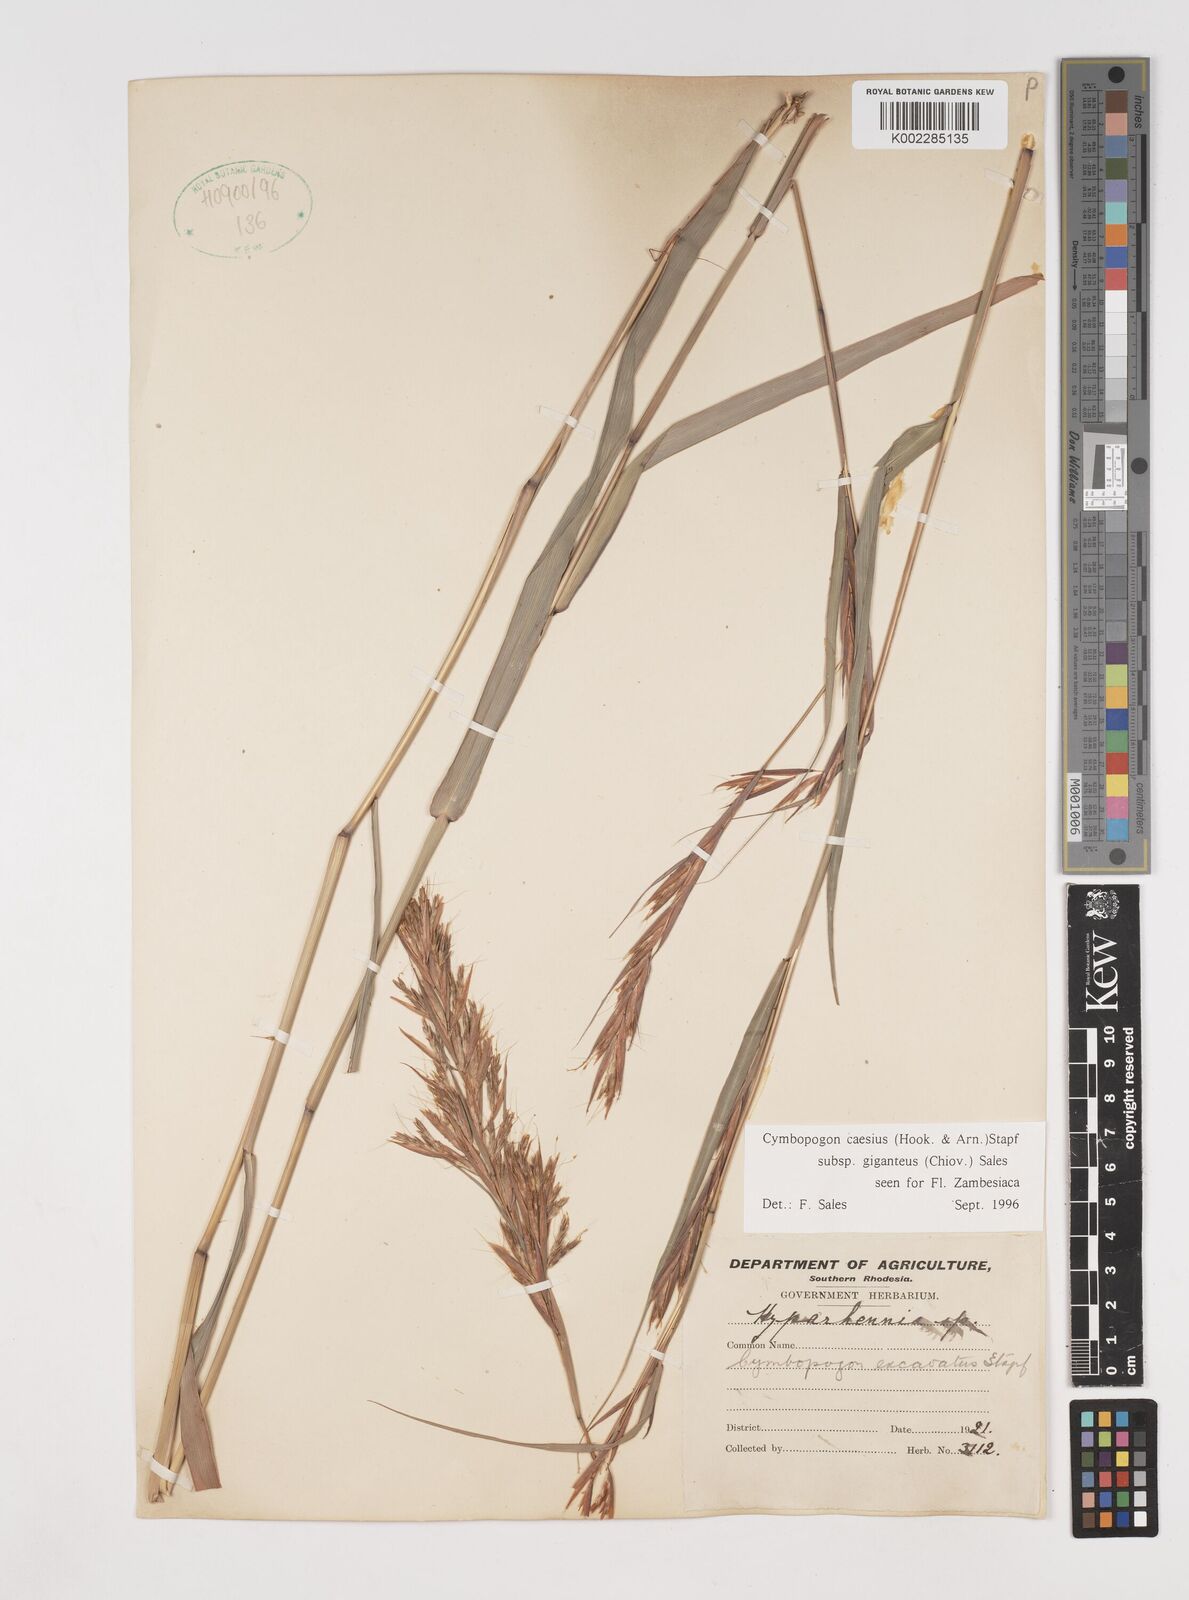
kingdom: Plantae
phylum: Tracheophyta
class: Liliopsida
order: Poales
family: Poaceae
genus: Cymbopogon
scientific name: Cymbopogon giganteus
